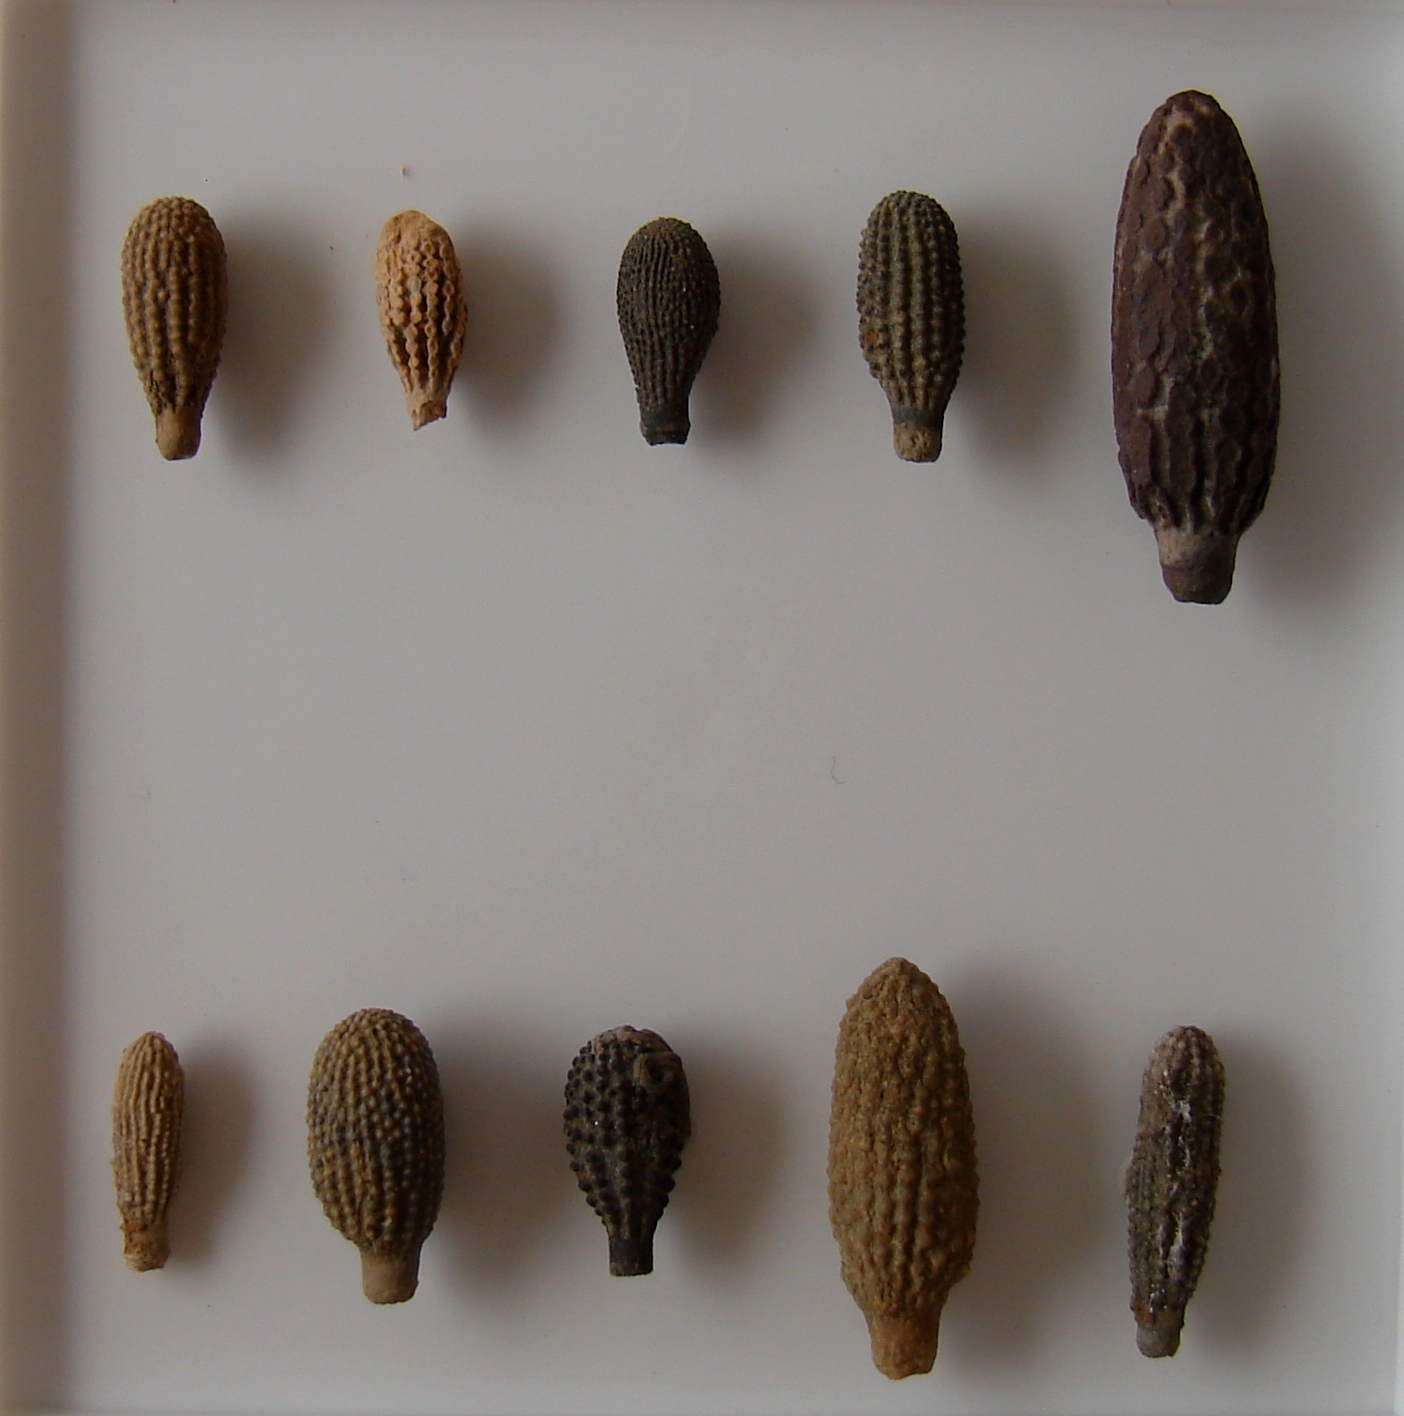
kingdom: Animalia
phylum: Echinodermata
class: Echinoidea
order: Cidaroida
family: Psychocidaridae
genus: Caenocidaris
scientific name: Caenocidaris
